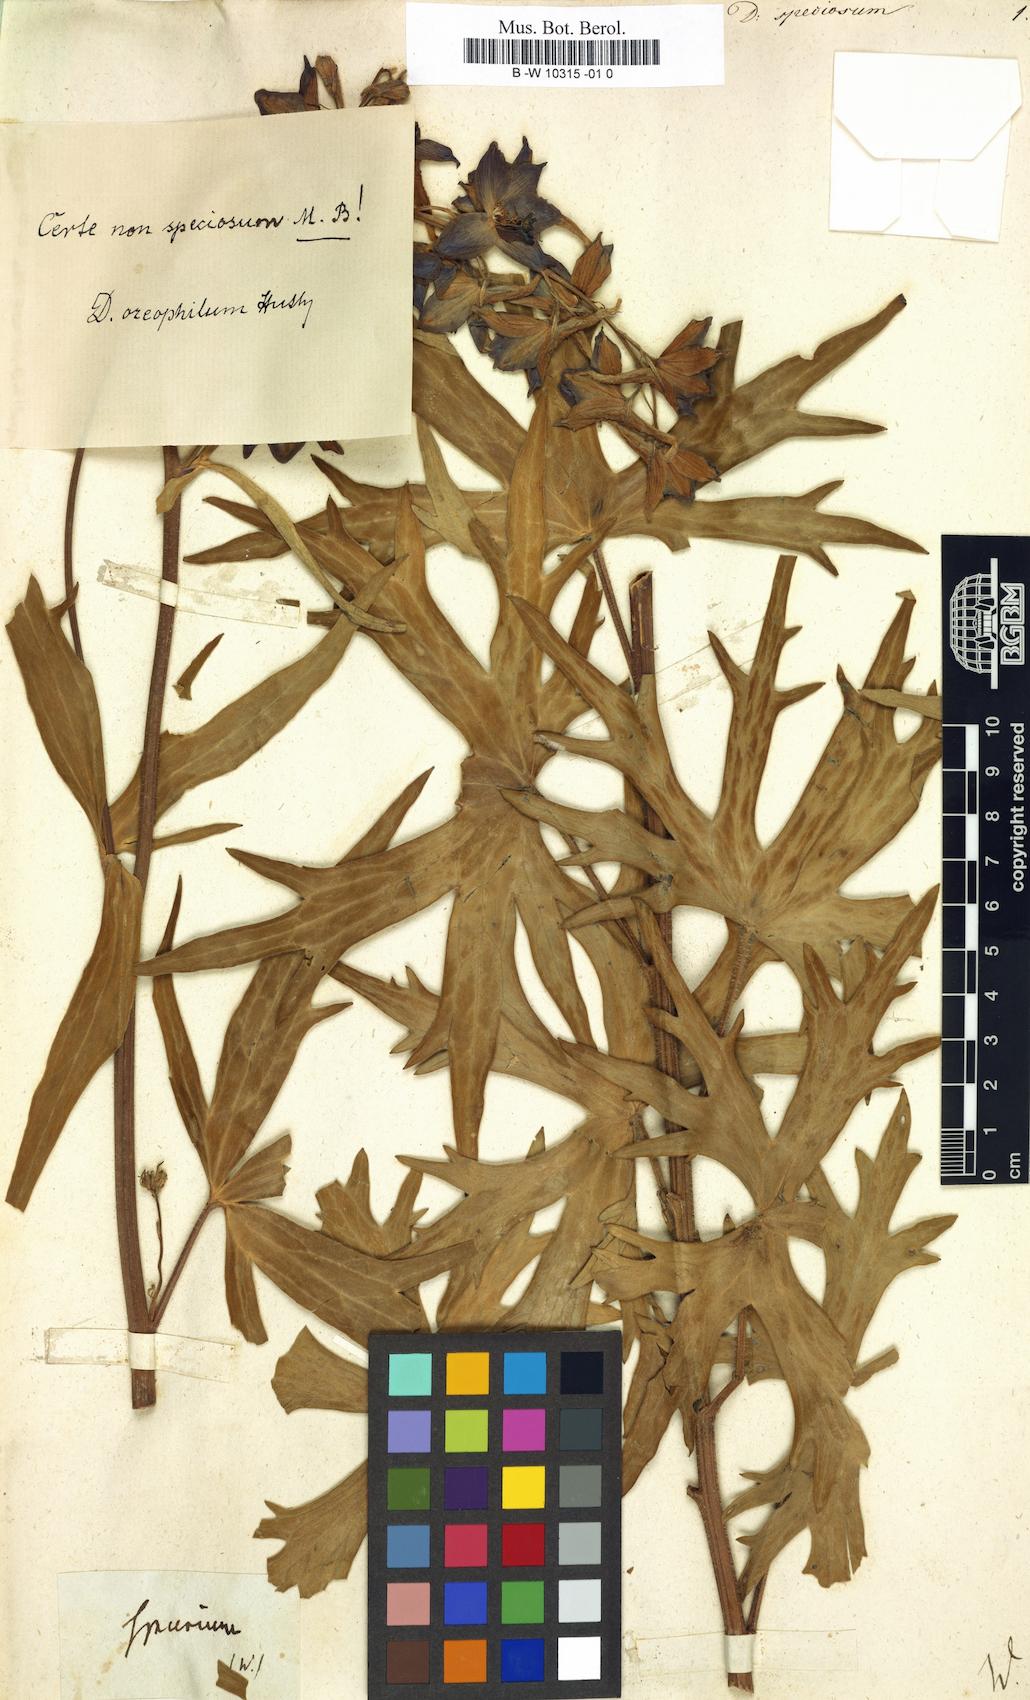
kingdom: Plantae
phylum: Tracheophyta
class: Magnoliopsida
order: Ranunculales
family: Ranunculaceae
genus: Delphinium
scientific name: Delphinium speciosum
